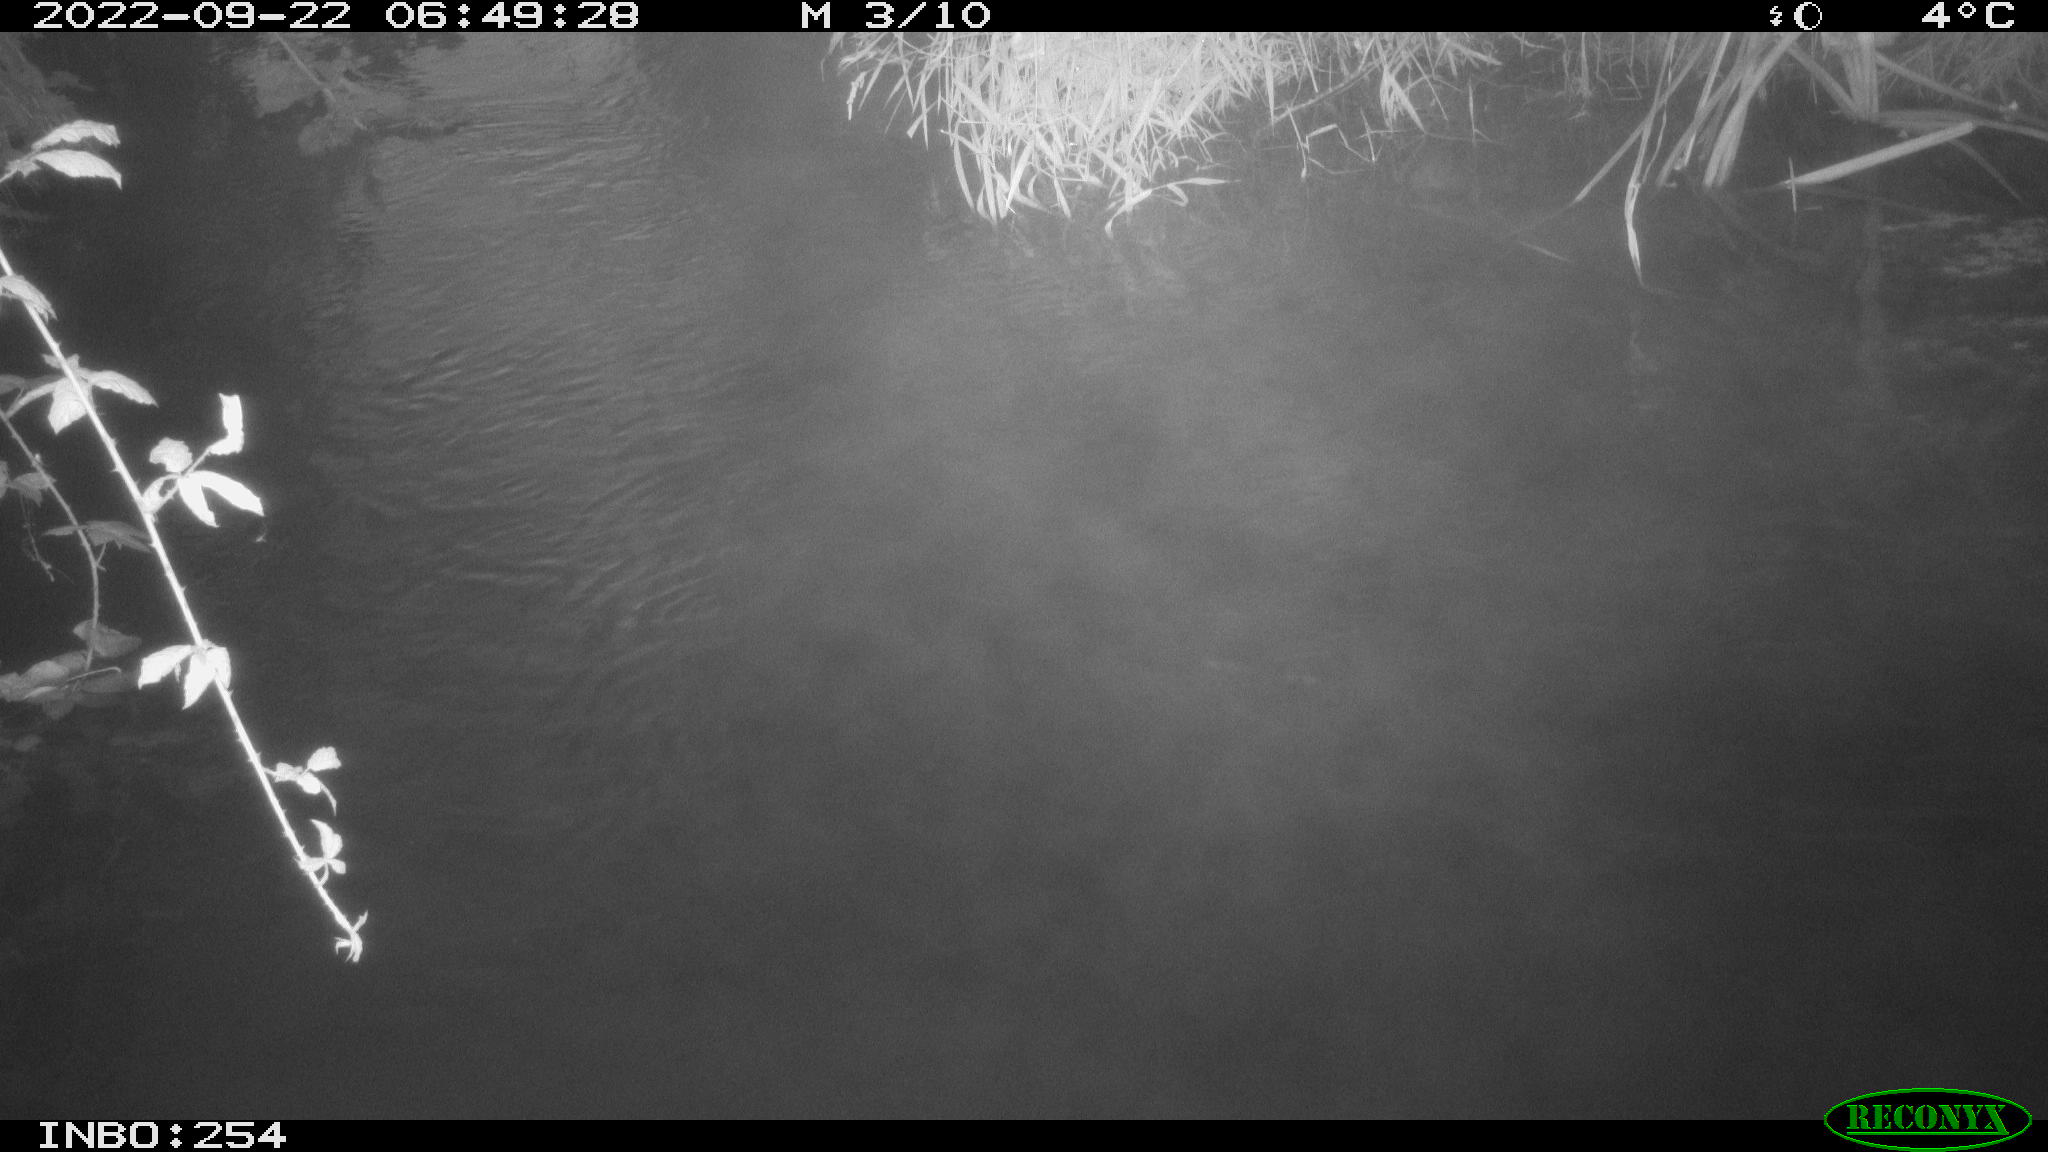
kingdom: Animalia
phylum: Chordata
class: Aves
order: Anseriformes
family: Anatidae
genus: Anas
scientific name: Anas
